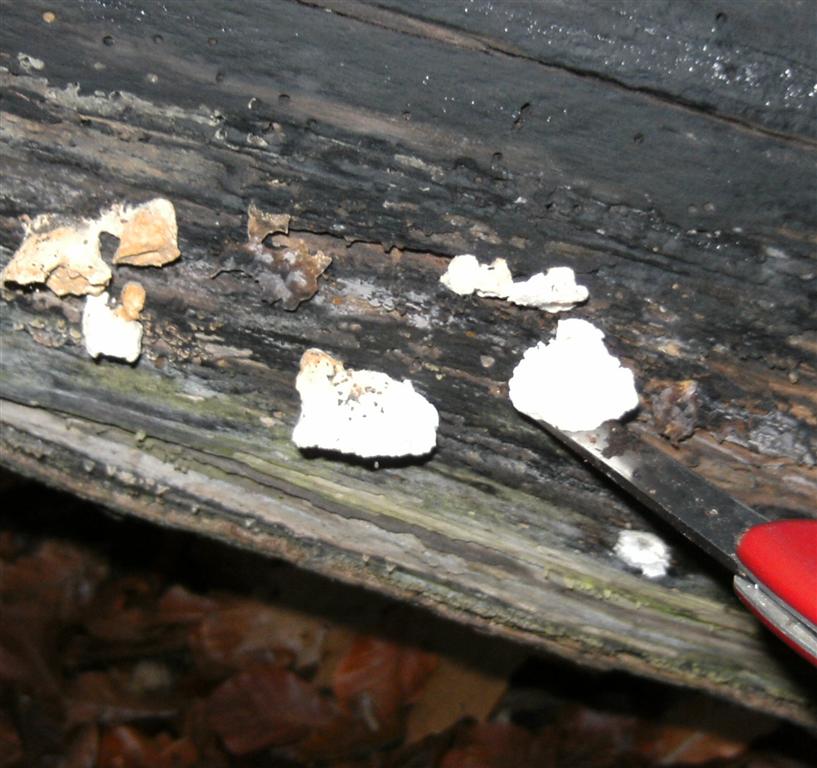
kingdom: Fungi
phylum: Basidiomycota
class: Agaricomycetes
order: Polyporales
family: Incrustoporiaceae
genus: Tyromyces
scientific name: Tyromyces lacteus
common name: mælkehvid kødporesvamp
